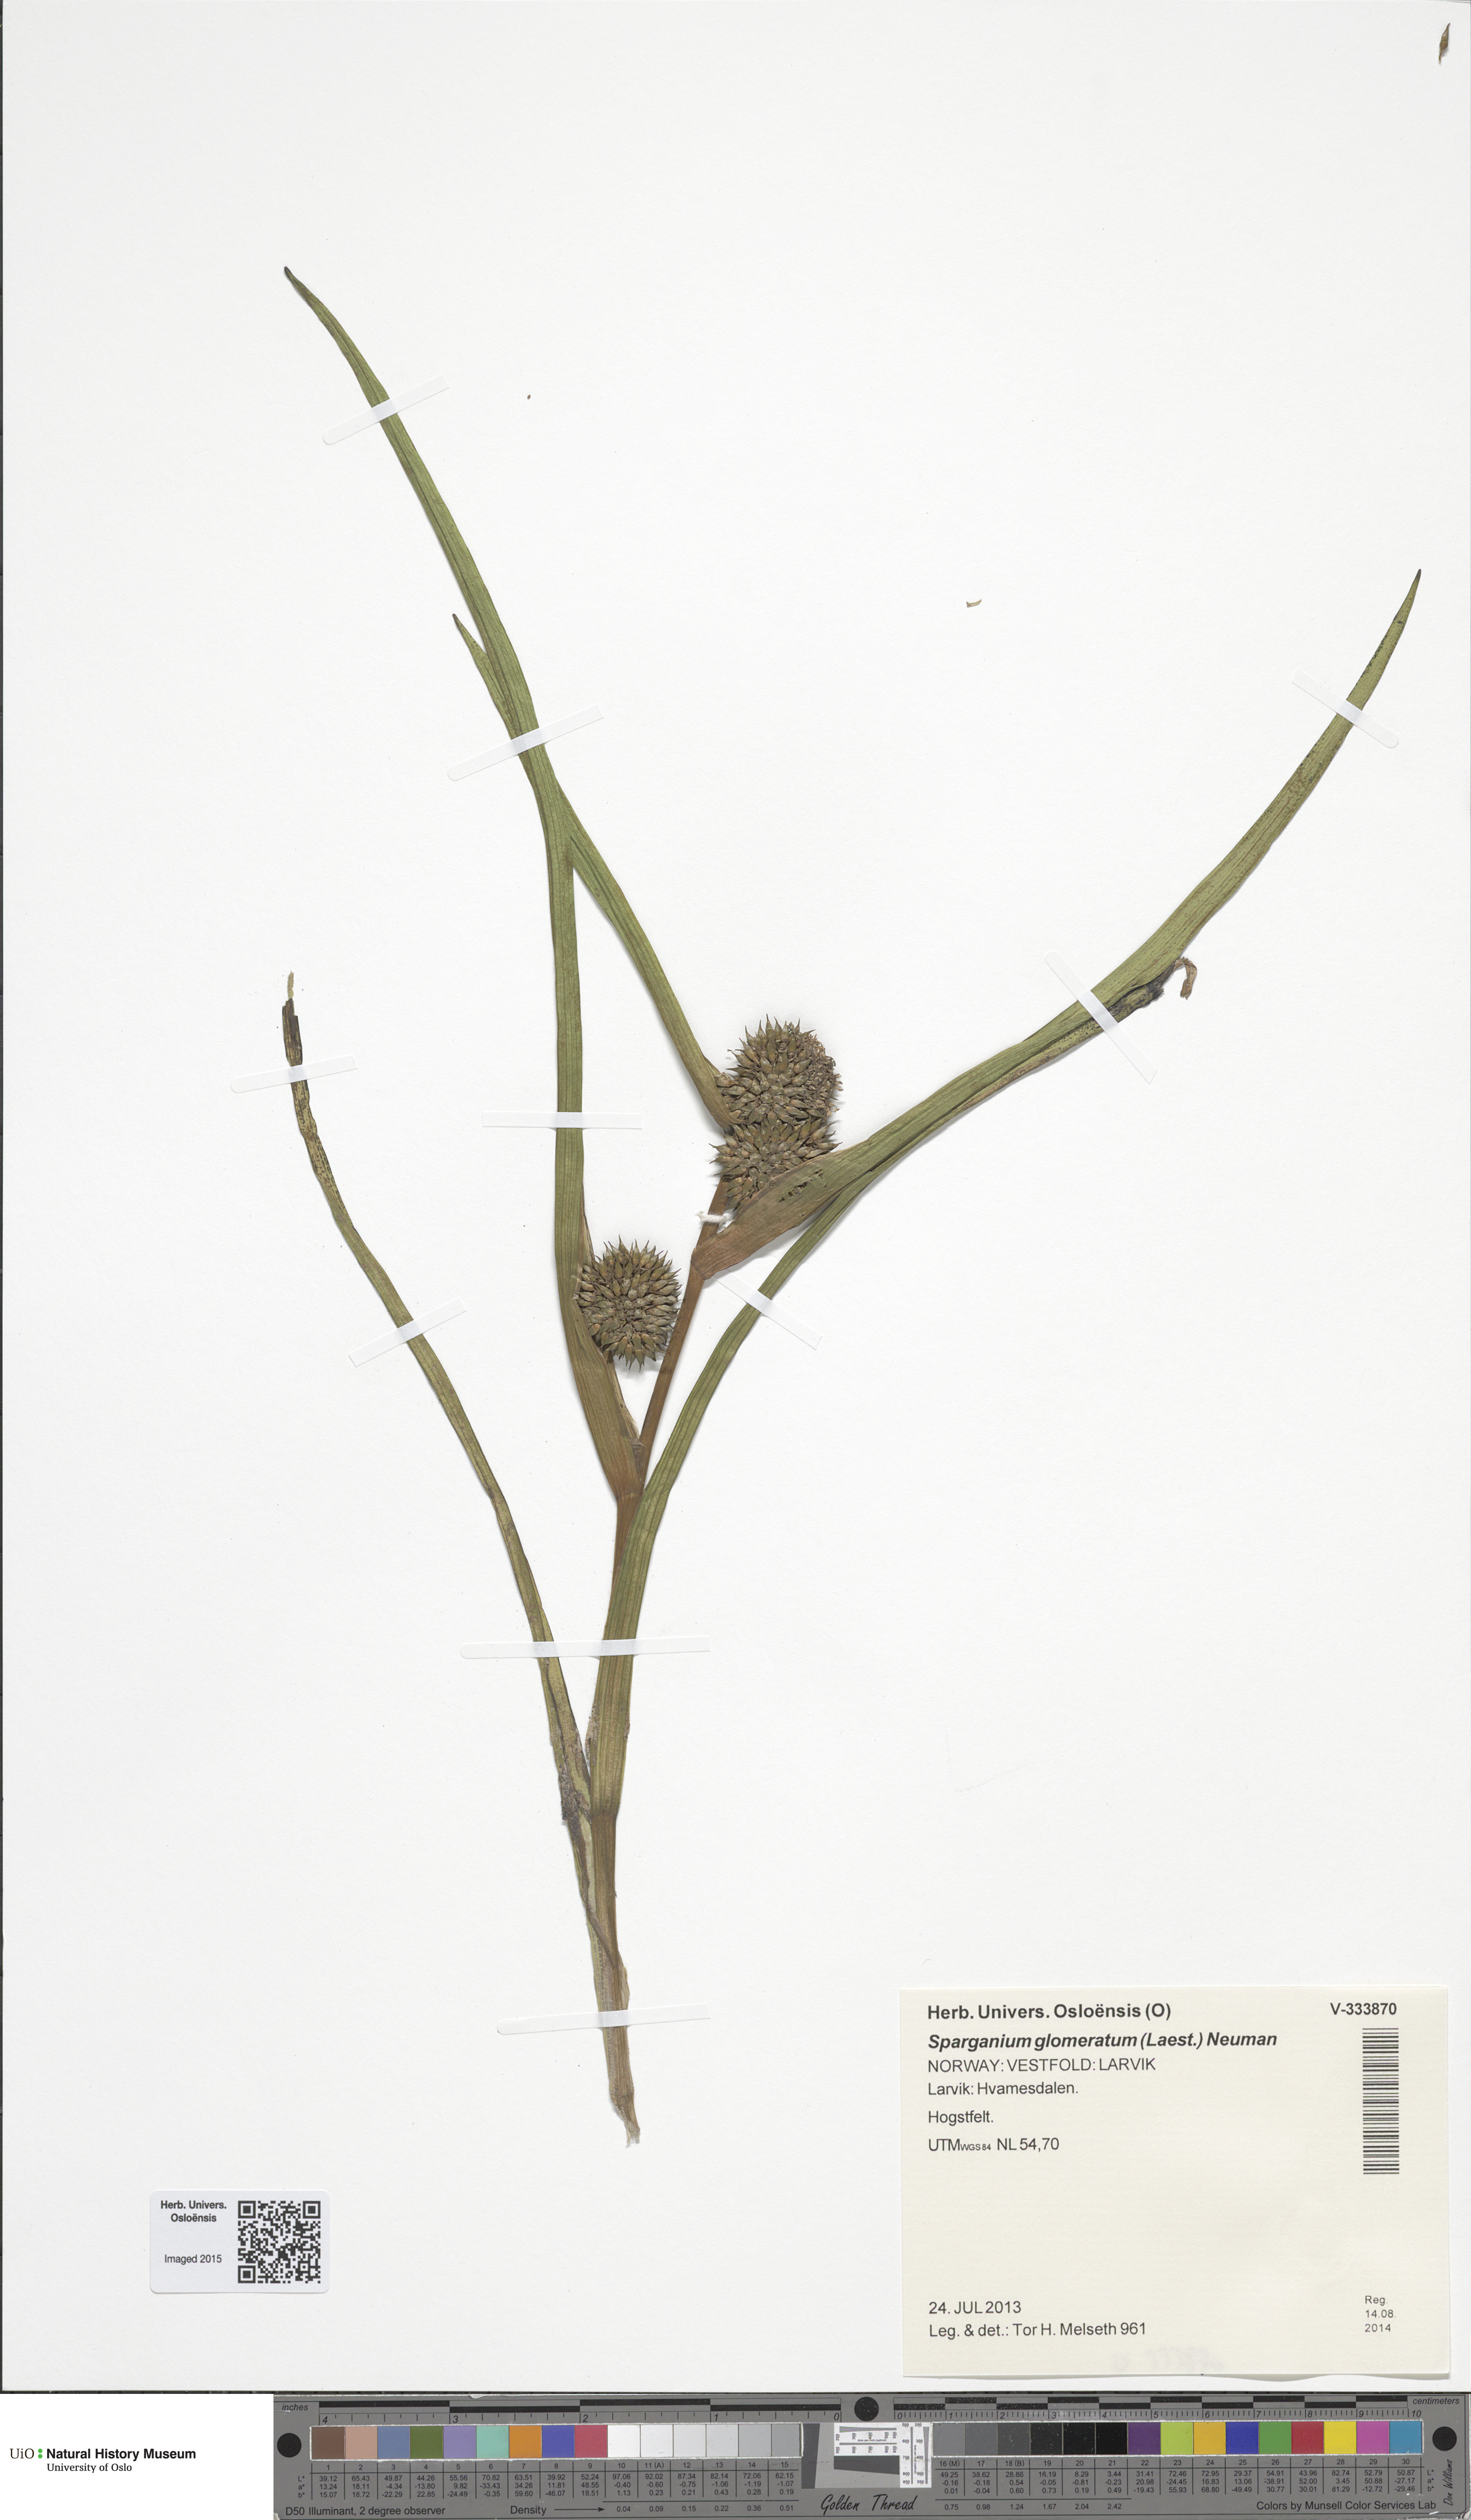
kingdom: Plantae
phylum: Tracheophyta
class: Liliopsida
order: Poales
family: Typhaceae
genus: Sparganium
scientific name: Sparganium glomeratum
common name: Clustered burreed
